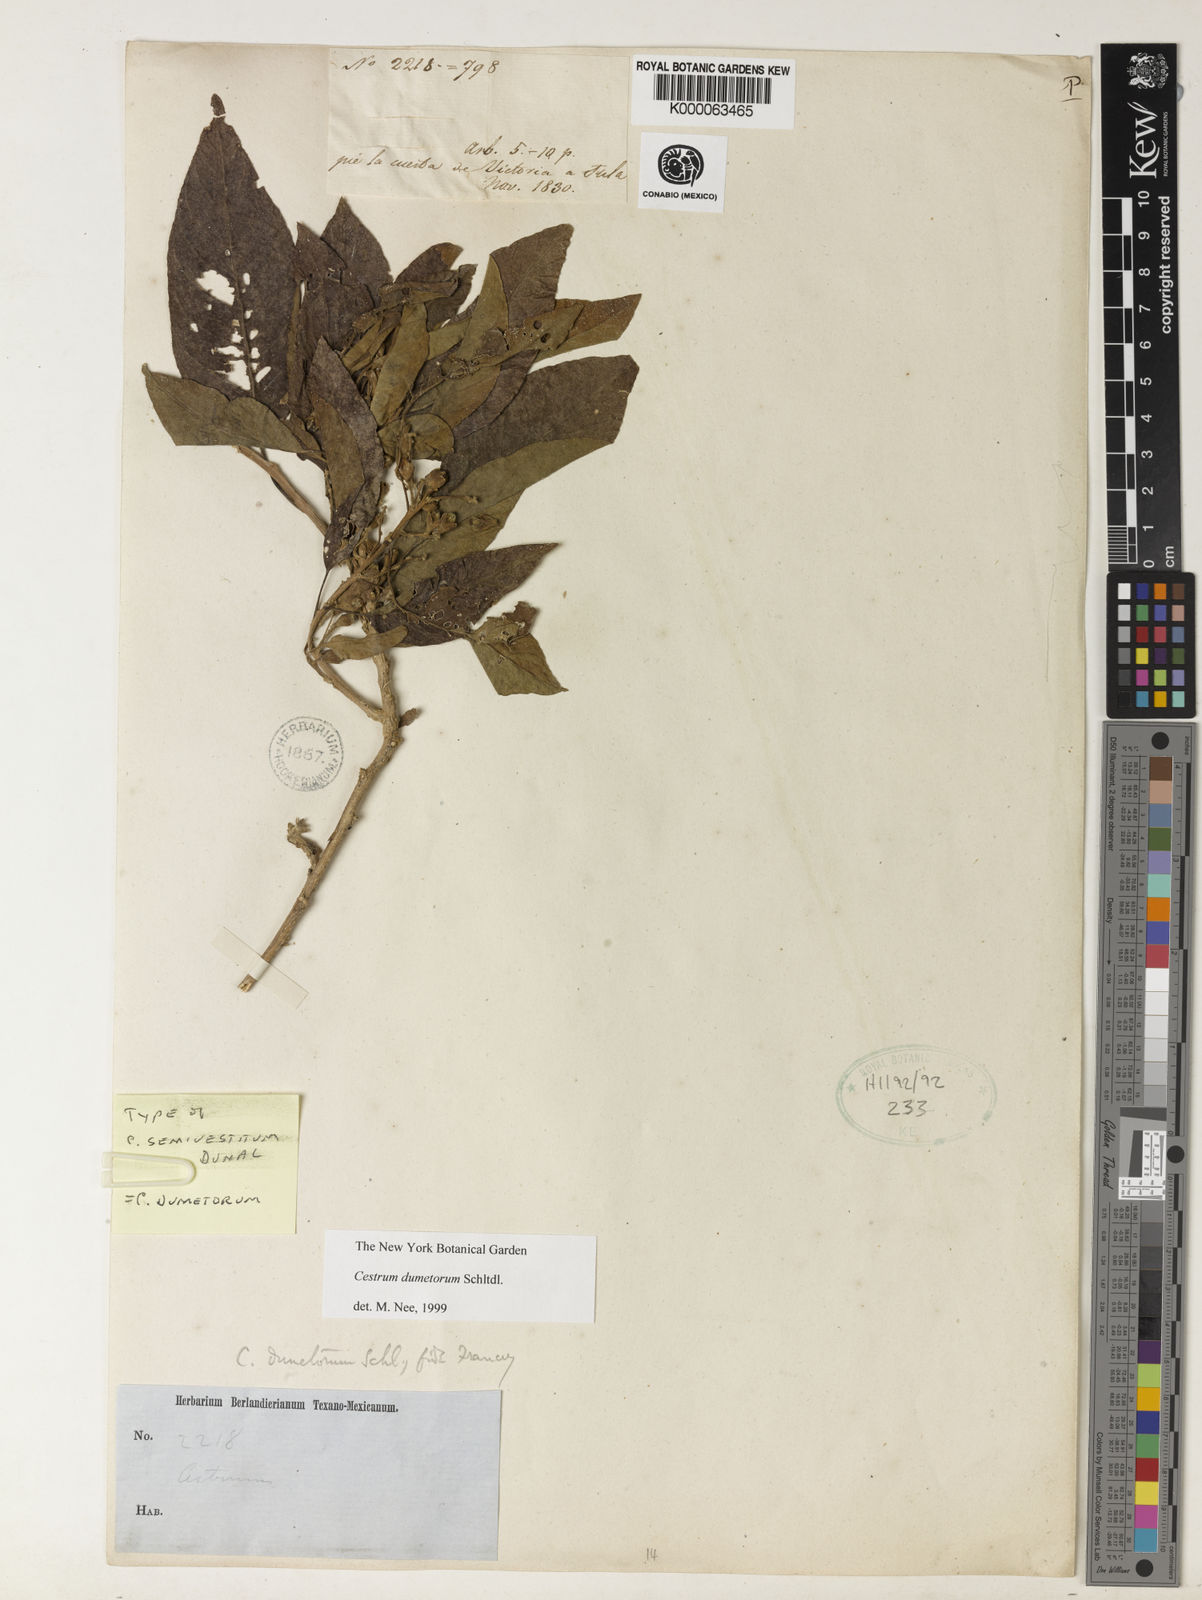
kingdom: Plantae
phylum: Tracheophyta
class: Magnoliopsida
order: Solanales
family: Solanaceae
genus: Cestrum
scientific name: Cestrum dumetorum
